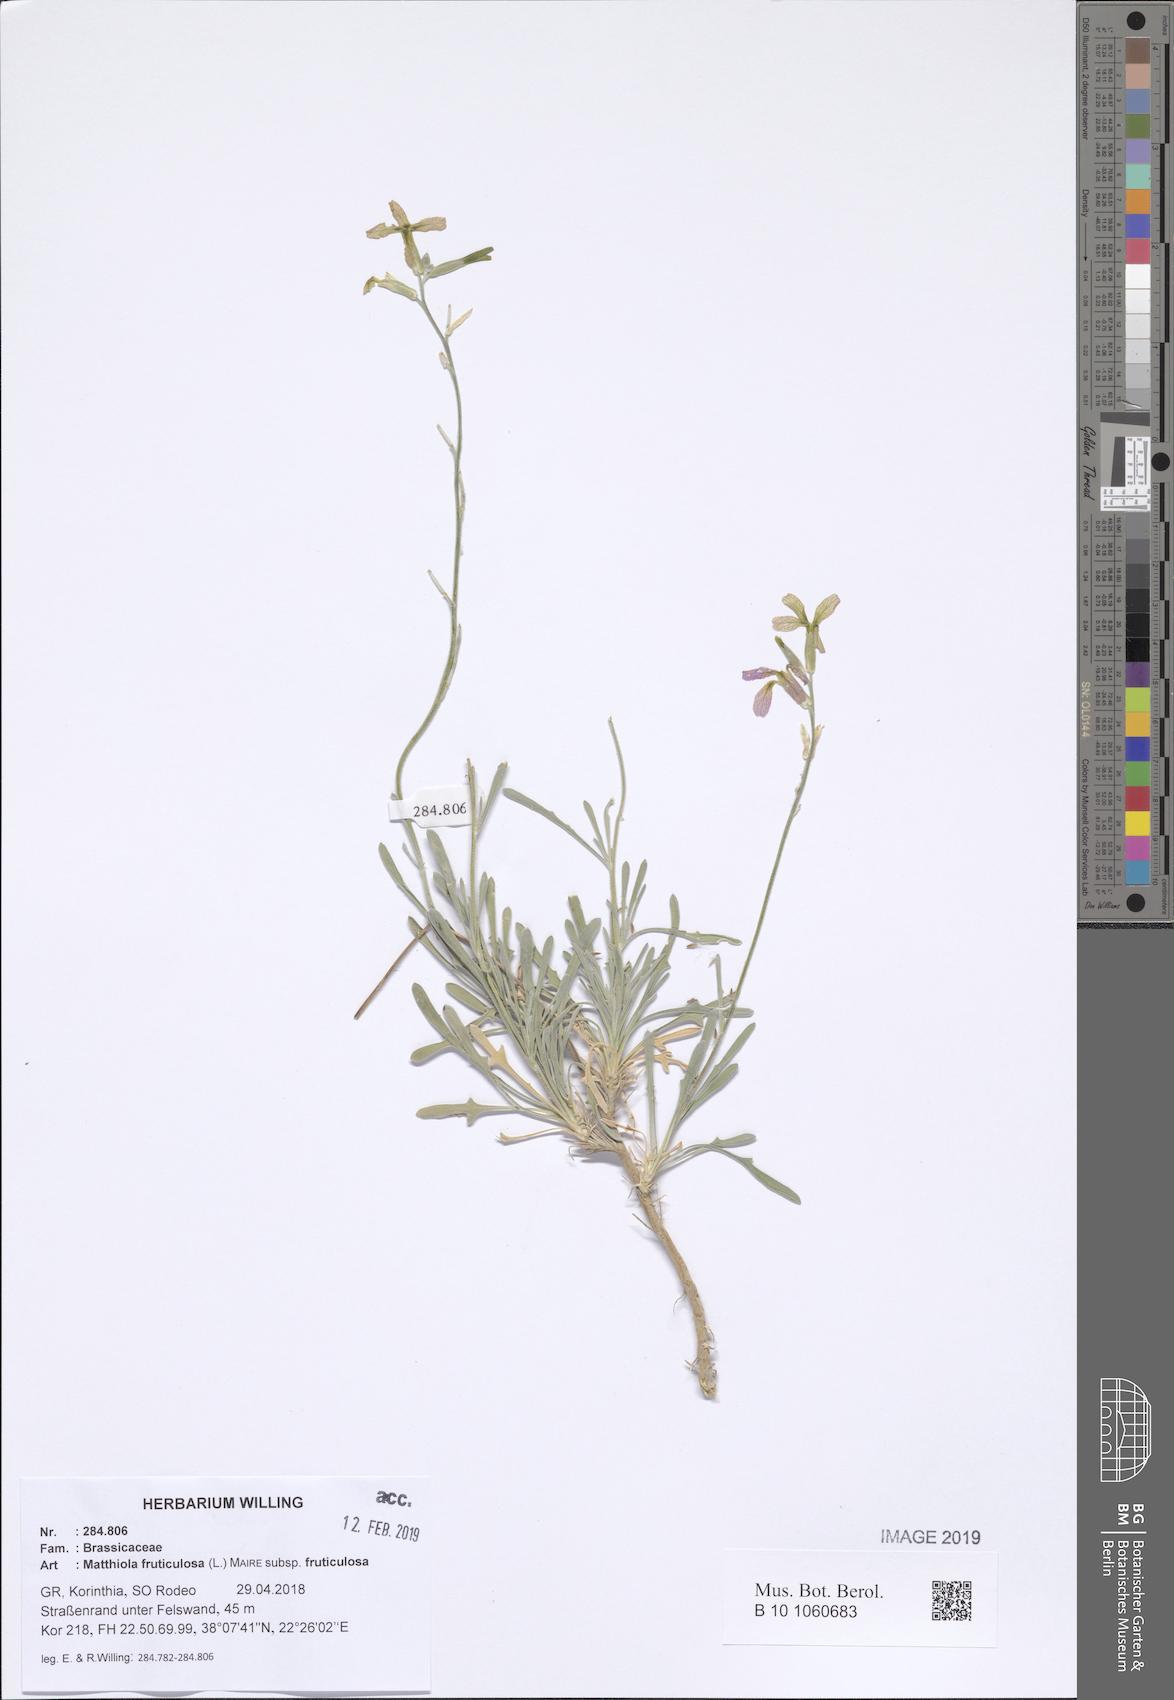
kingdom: Plantae
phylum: Tracheophyta
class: Magnoliopsida
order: Brassicales
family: Brassicaceae
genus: Matthiola
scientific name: Matthiola fruticulosa
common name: Sad stock
